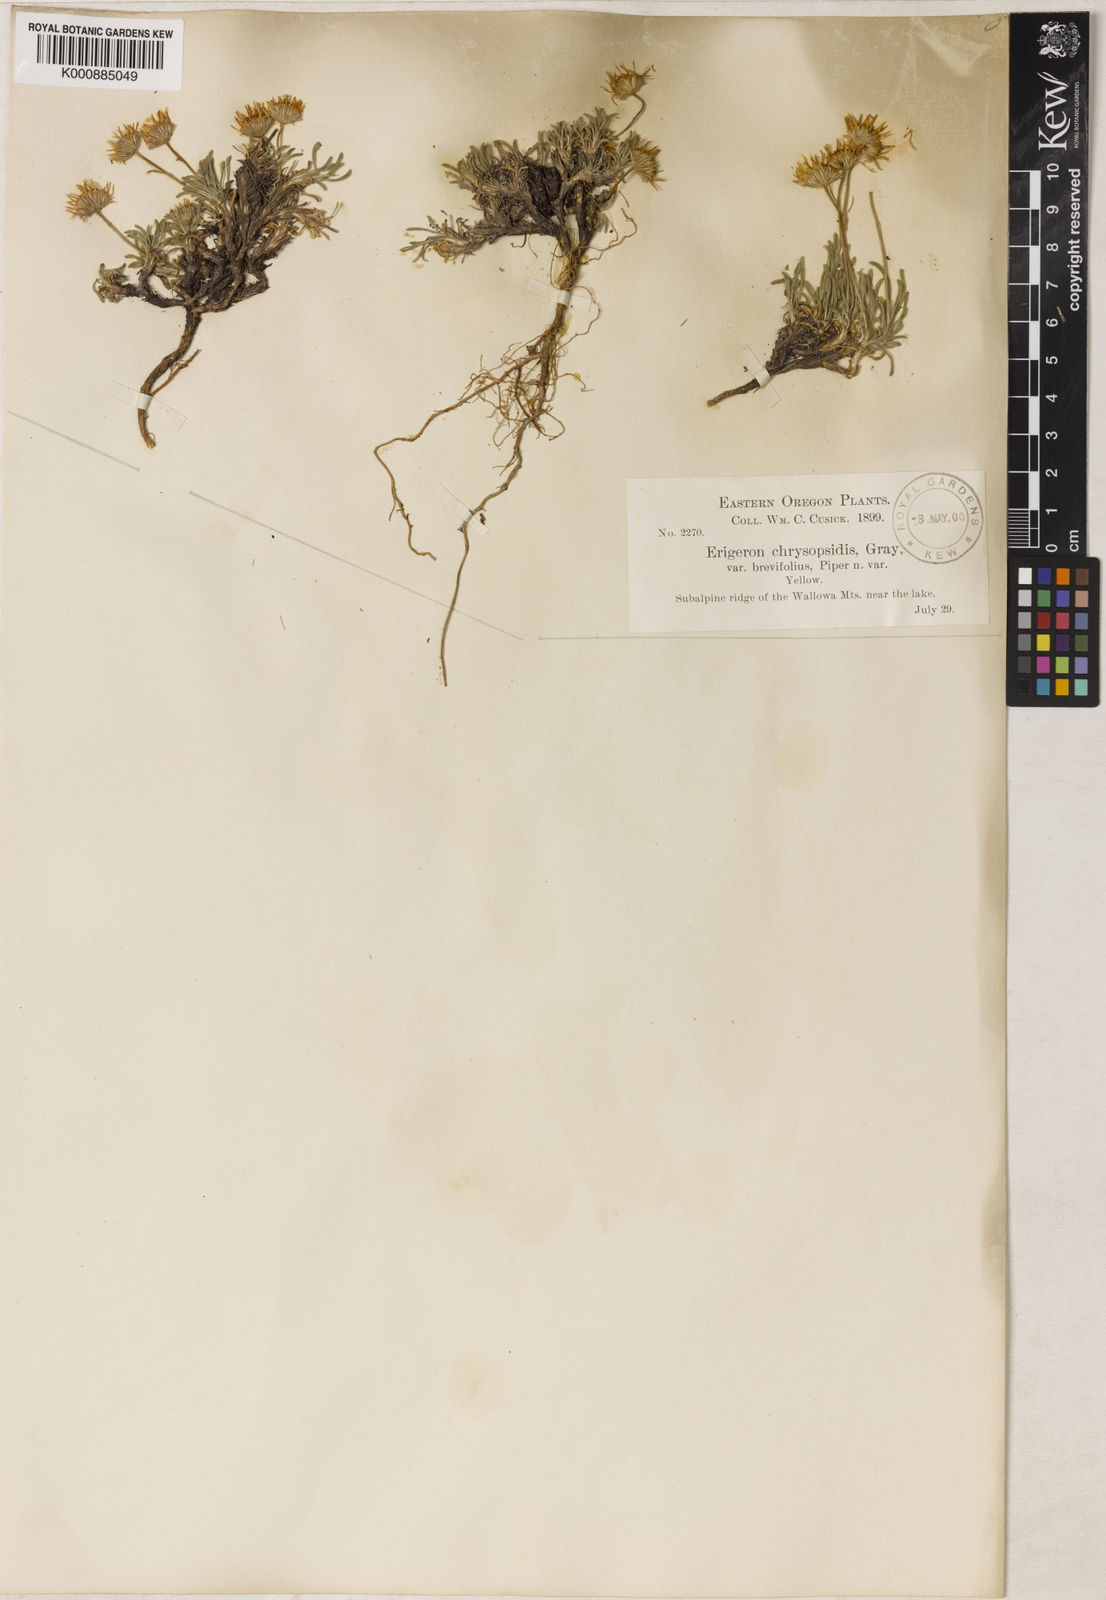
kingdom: Plantae
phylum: Tracheophyta
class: Magnoliopsida
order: Asterales
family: Asteraceae
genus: Erigeron
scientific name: Erigeron
